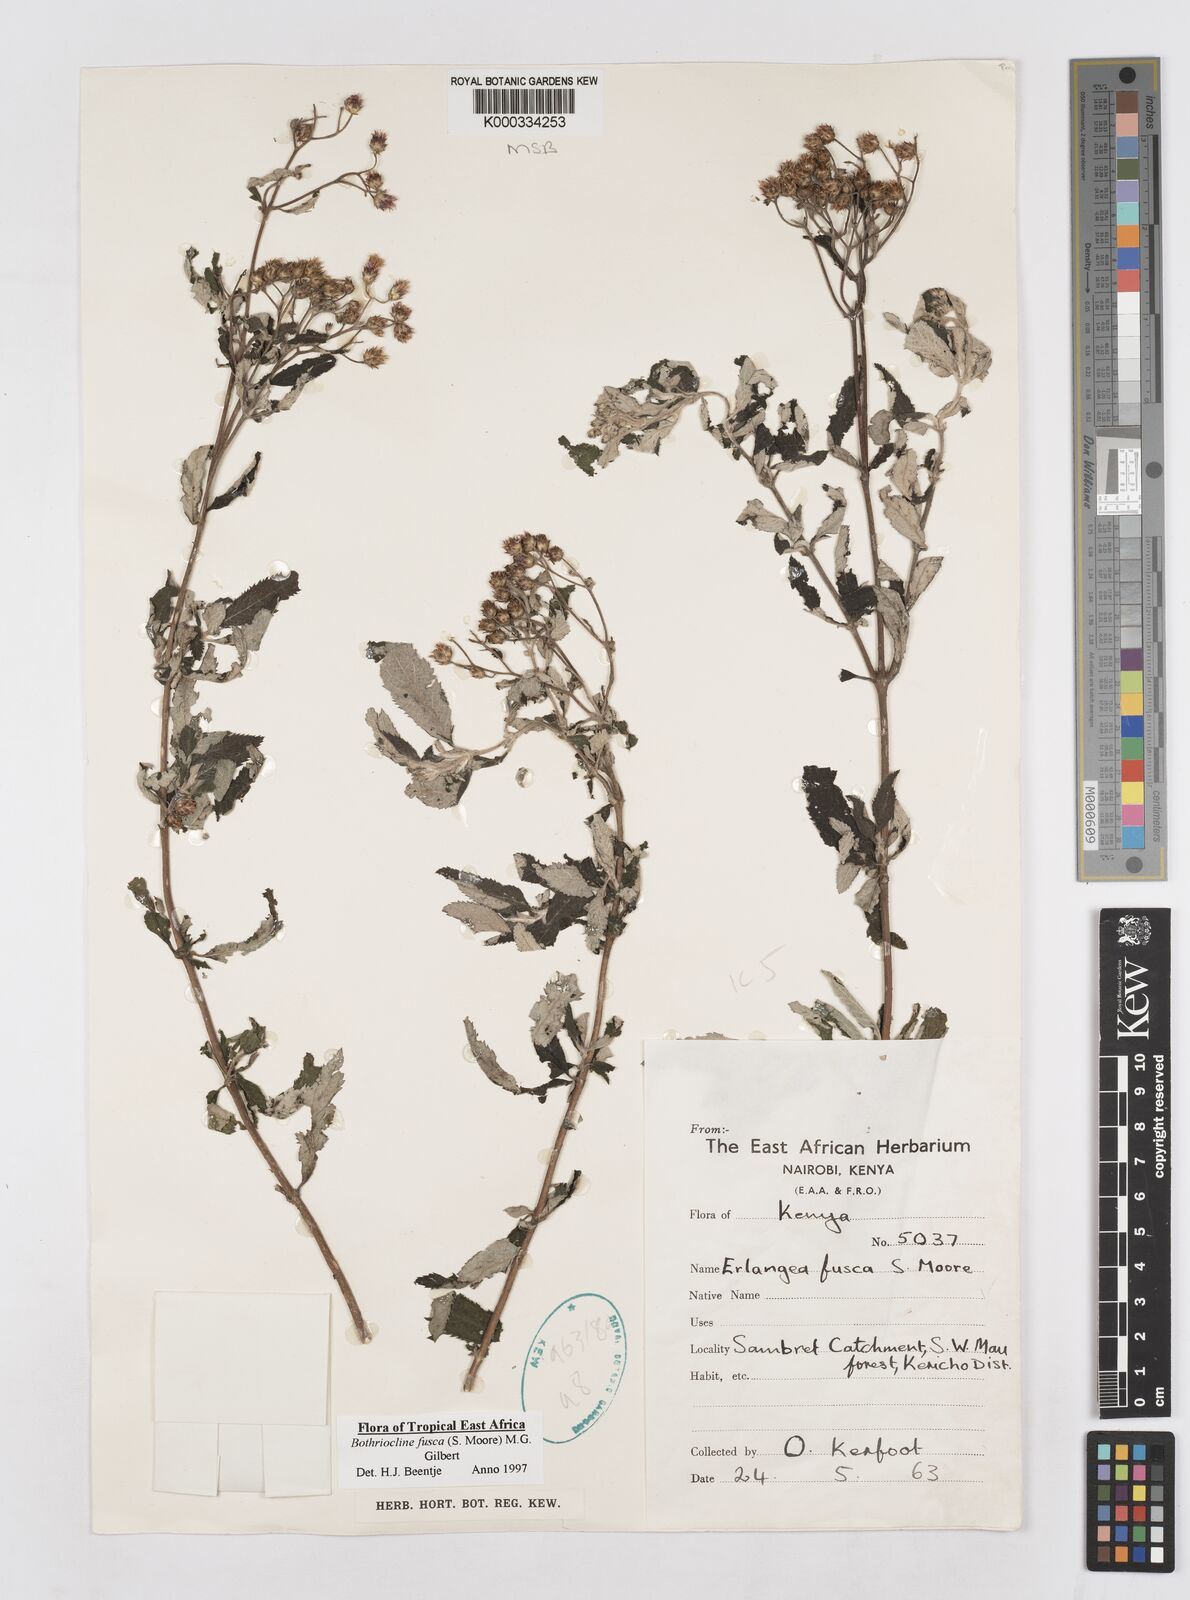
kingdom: Plantae
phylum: Tracheophyta
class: Magnoliopsida
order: Asterales
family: Asteraceae
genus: Bothriocline
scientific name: Bothriocline fusca
